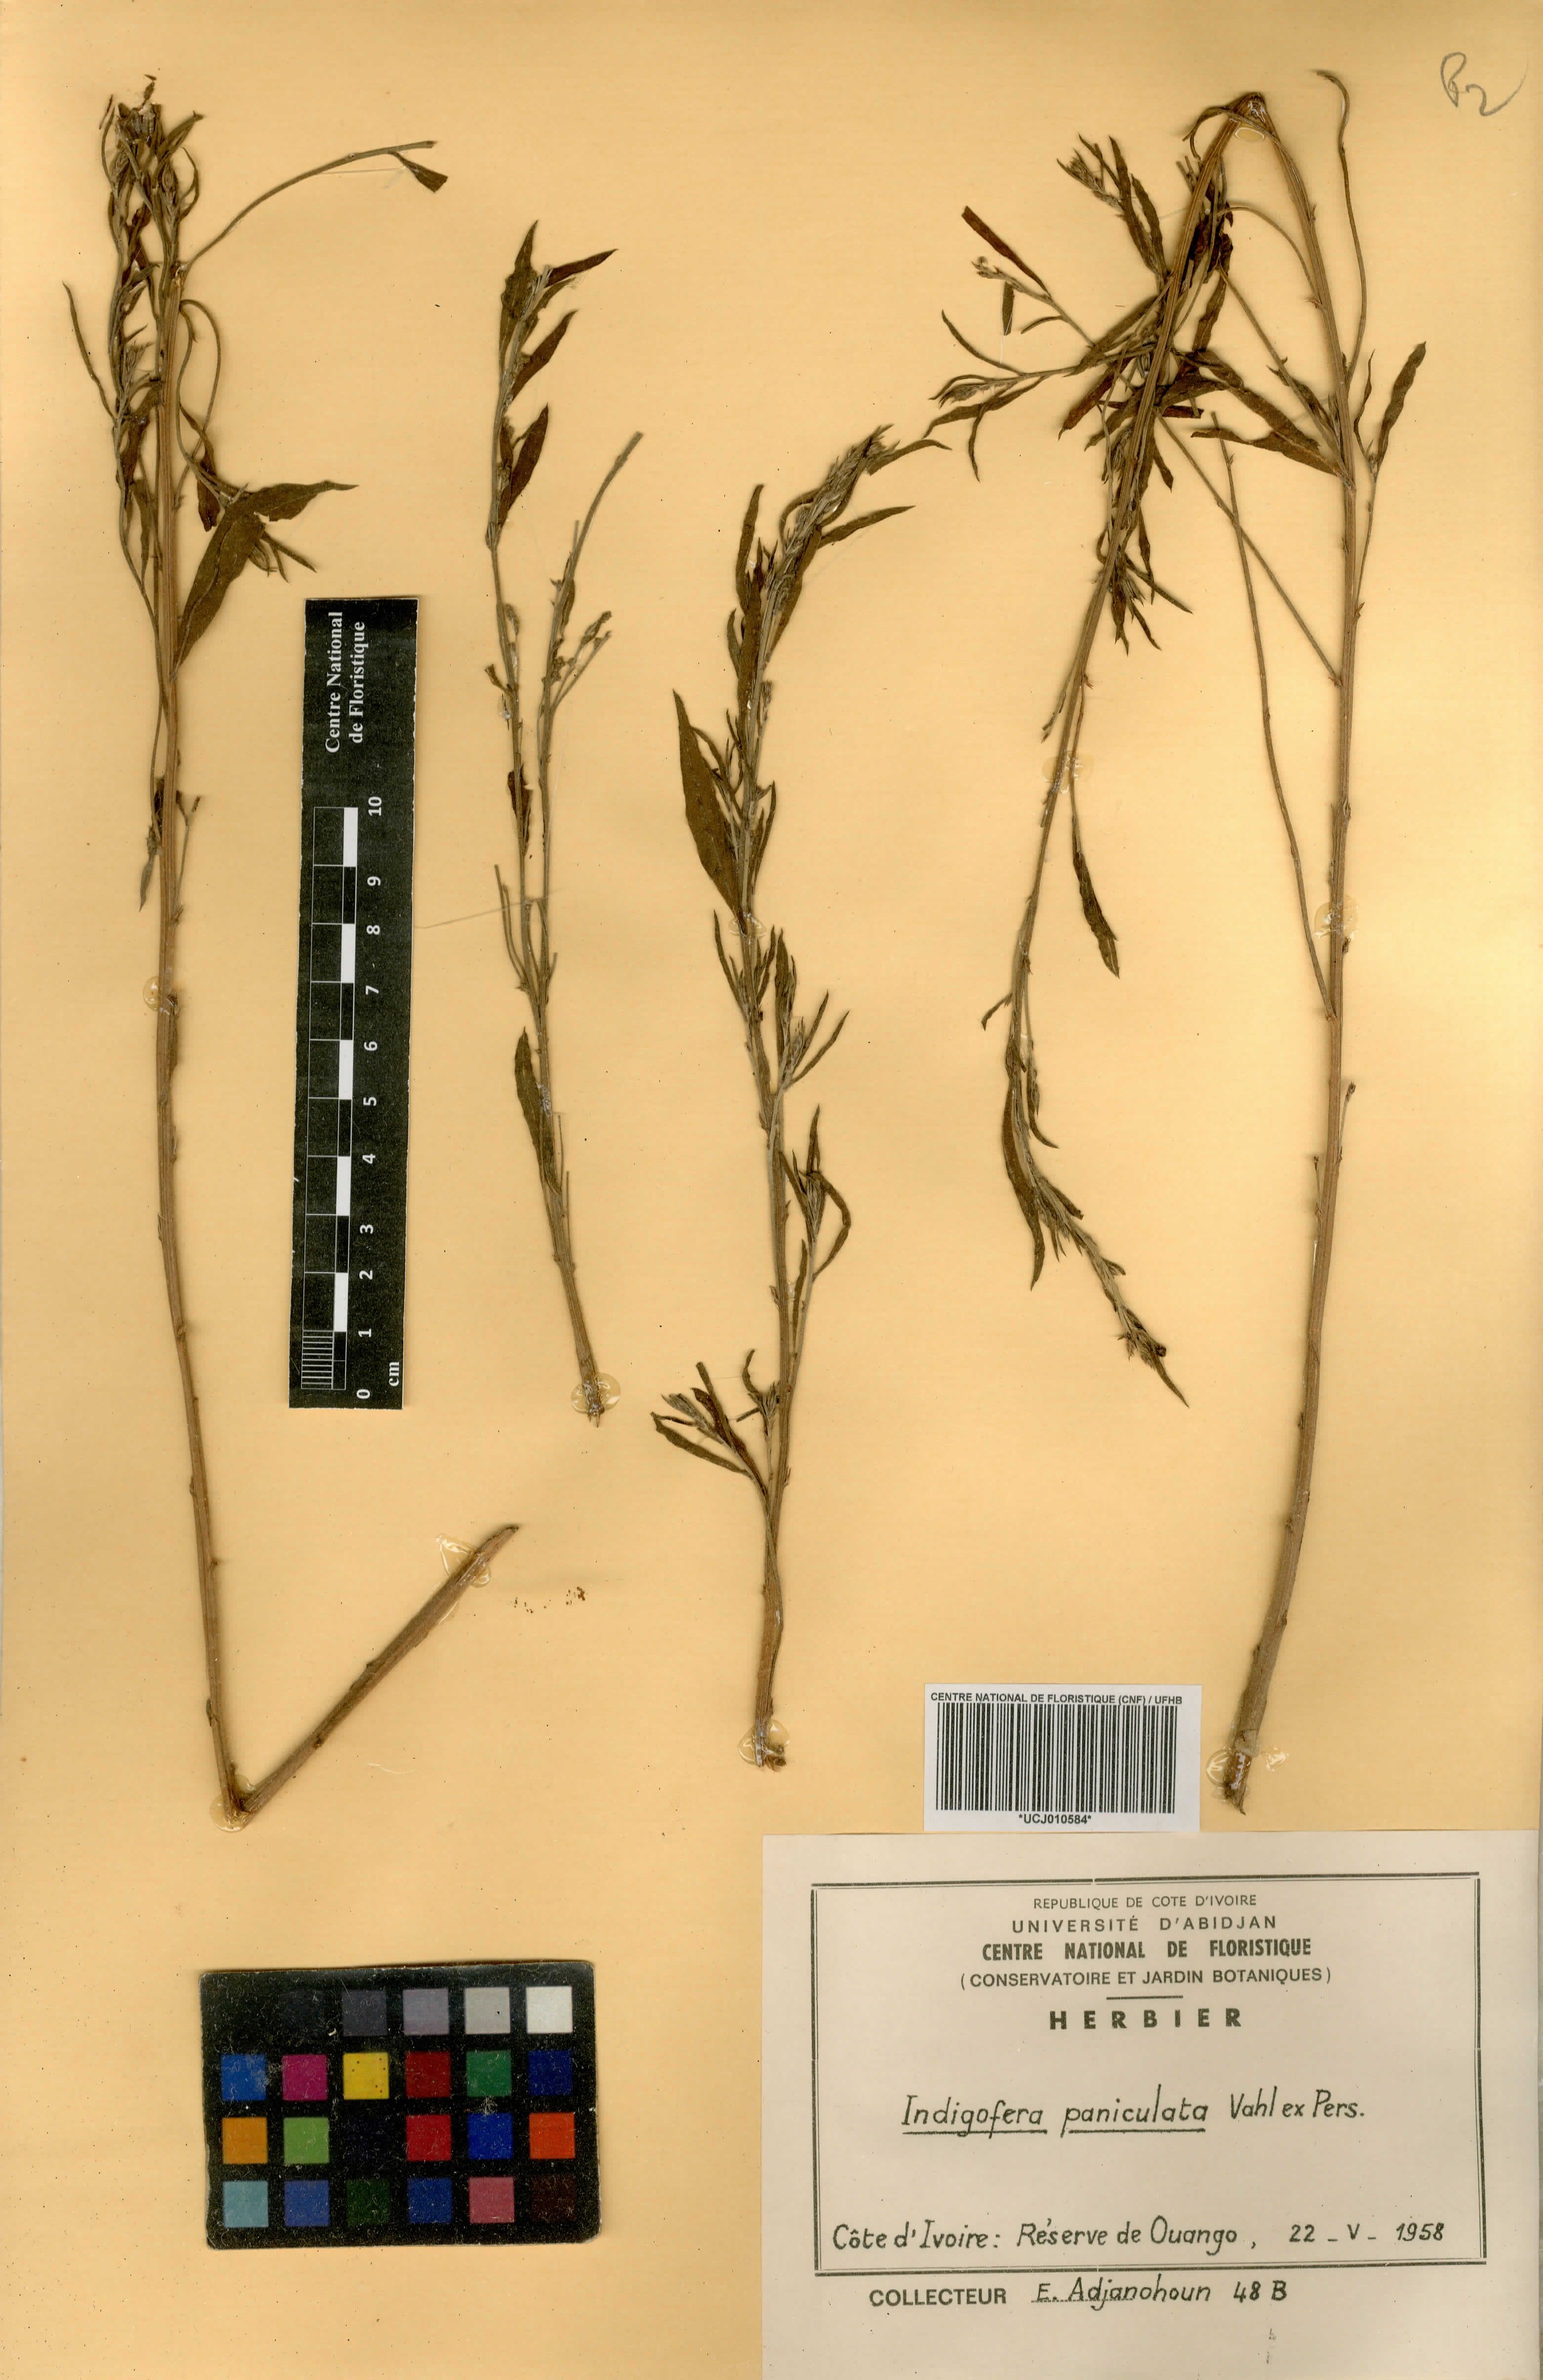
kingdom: Plantae
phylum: Tracheophyta
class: Magnoliopsida
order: Fabales
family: Fabaceae
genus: Indigofera
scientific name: Indigofera paniculata
